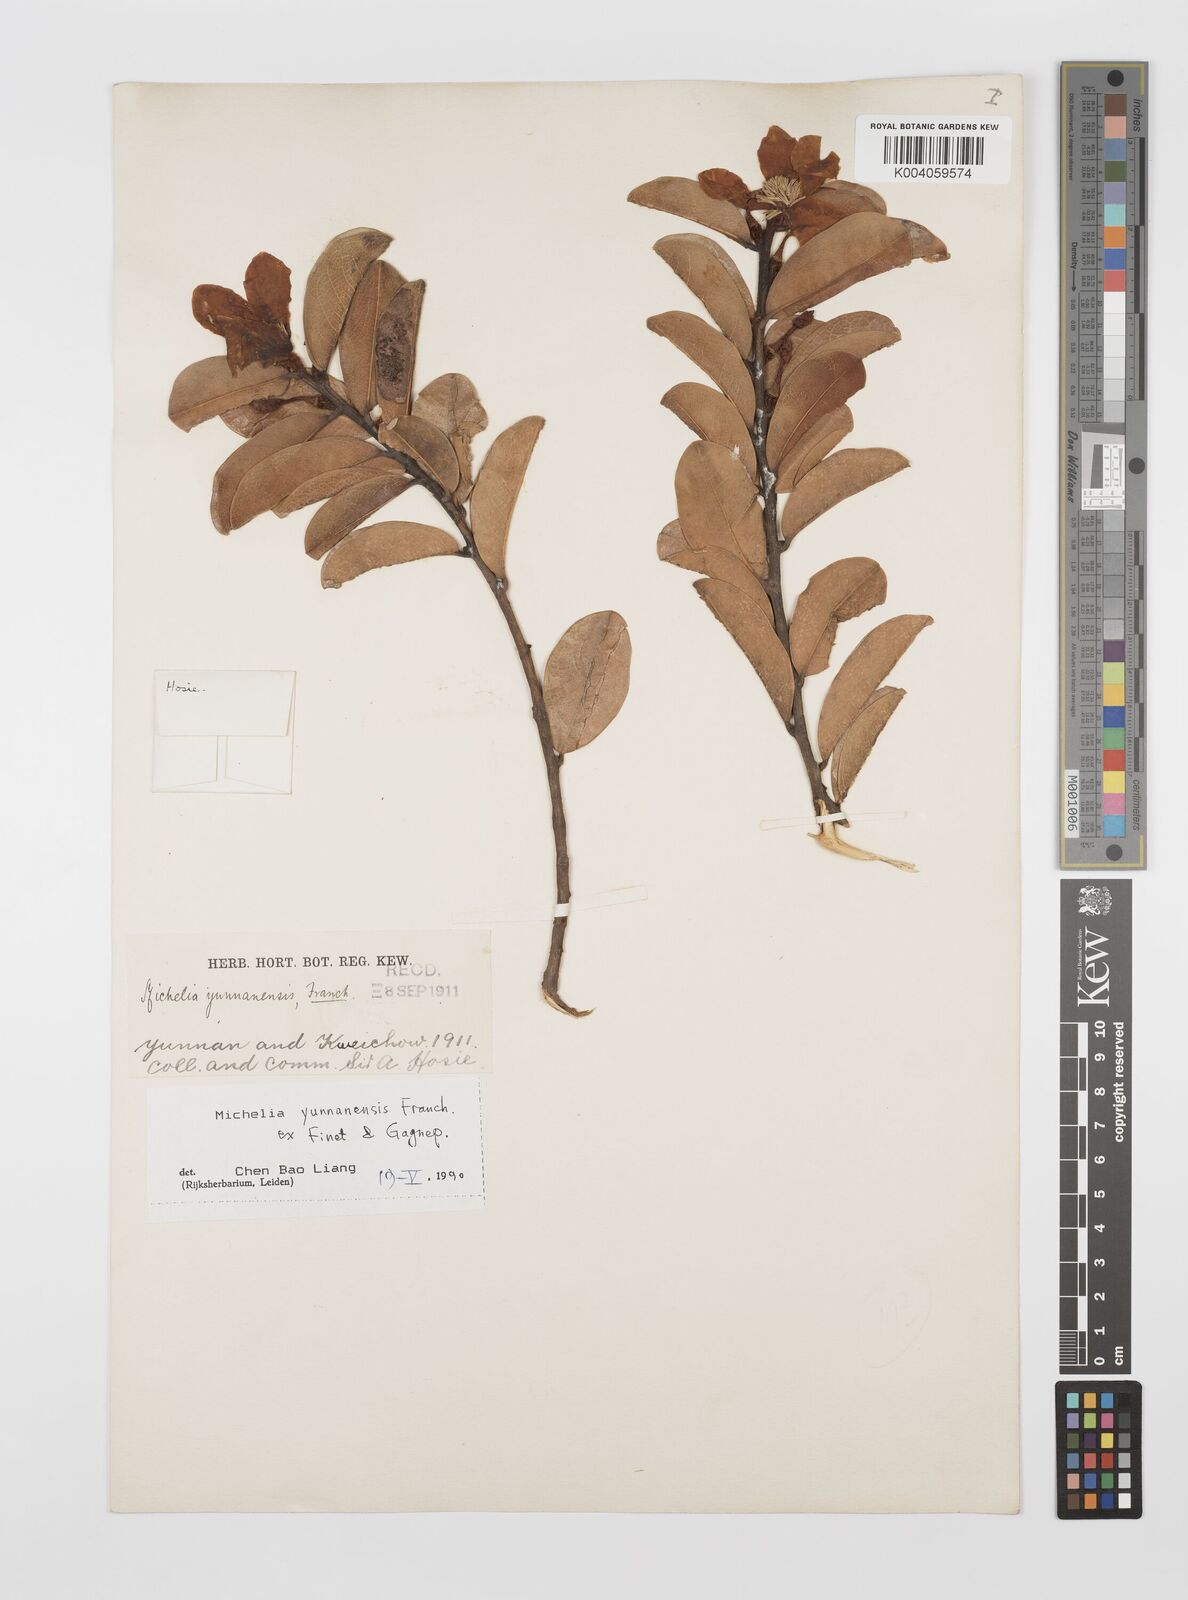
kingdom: Plantae
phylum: Tracheophyta
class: Magnoliopsida
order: Magnoliales
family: Magnoliaceae
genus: Magnolia
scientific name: Magnolia laevifolia
